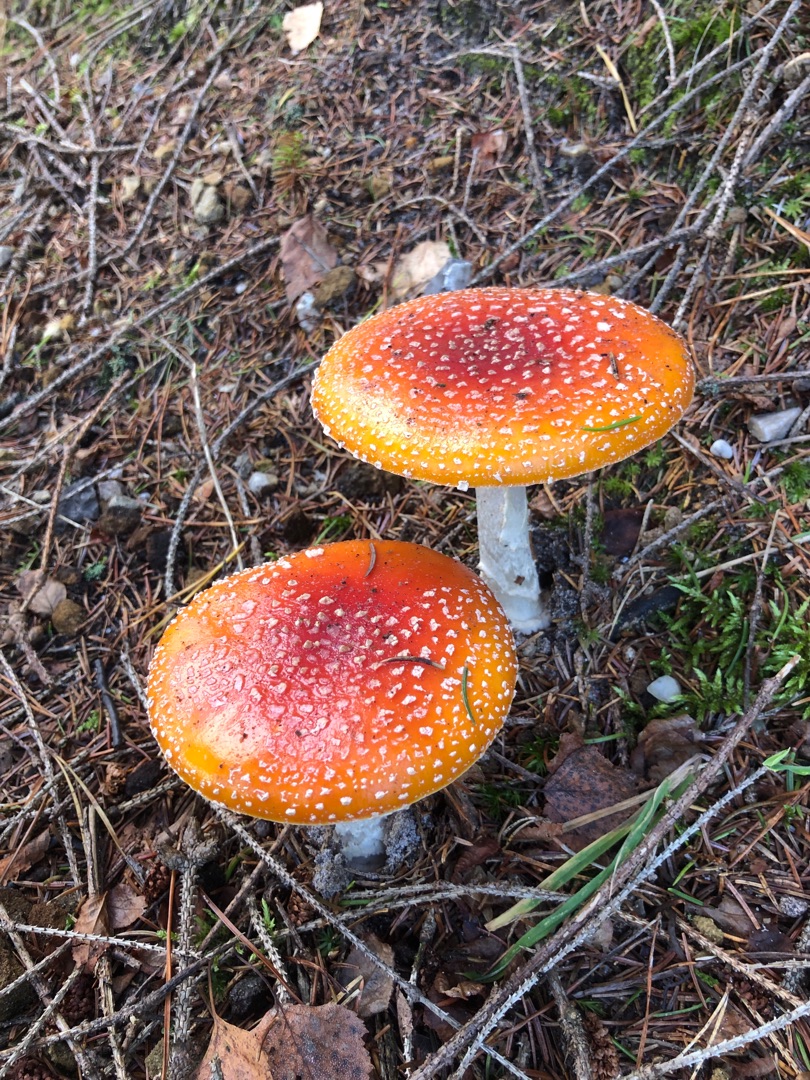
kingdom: Fungi
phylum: Basidiomycota
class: Agaricomycetes
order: Agaricales
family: Amanitaceae
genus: Amanita
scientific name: Amanita muscaria
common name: Rød fluesvamp
